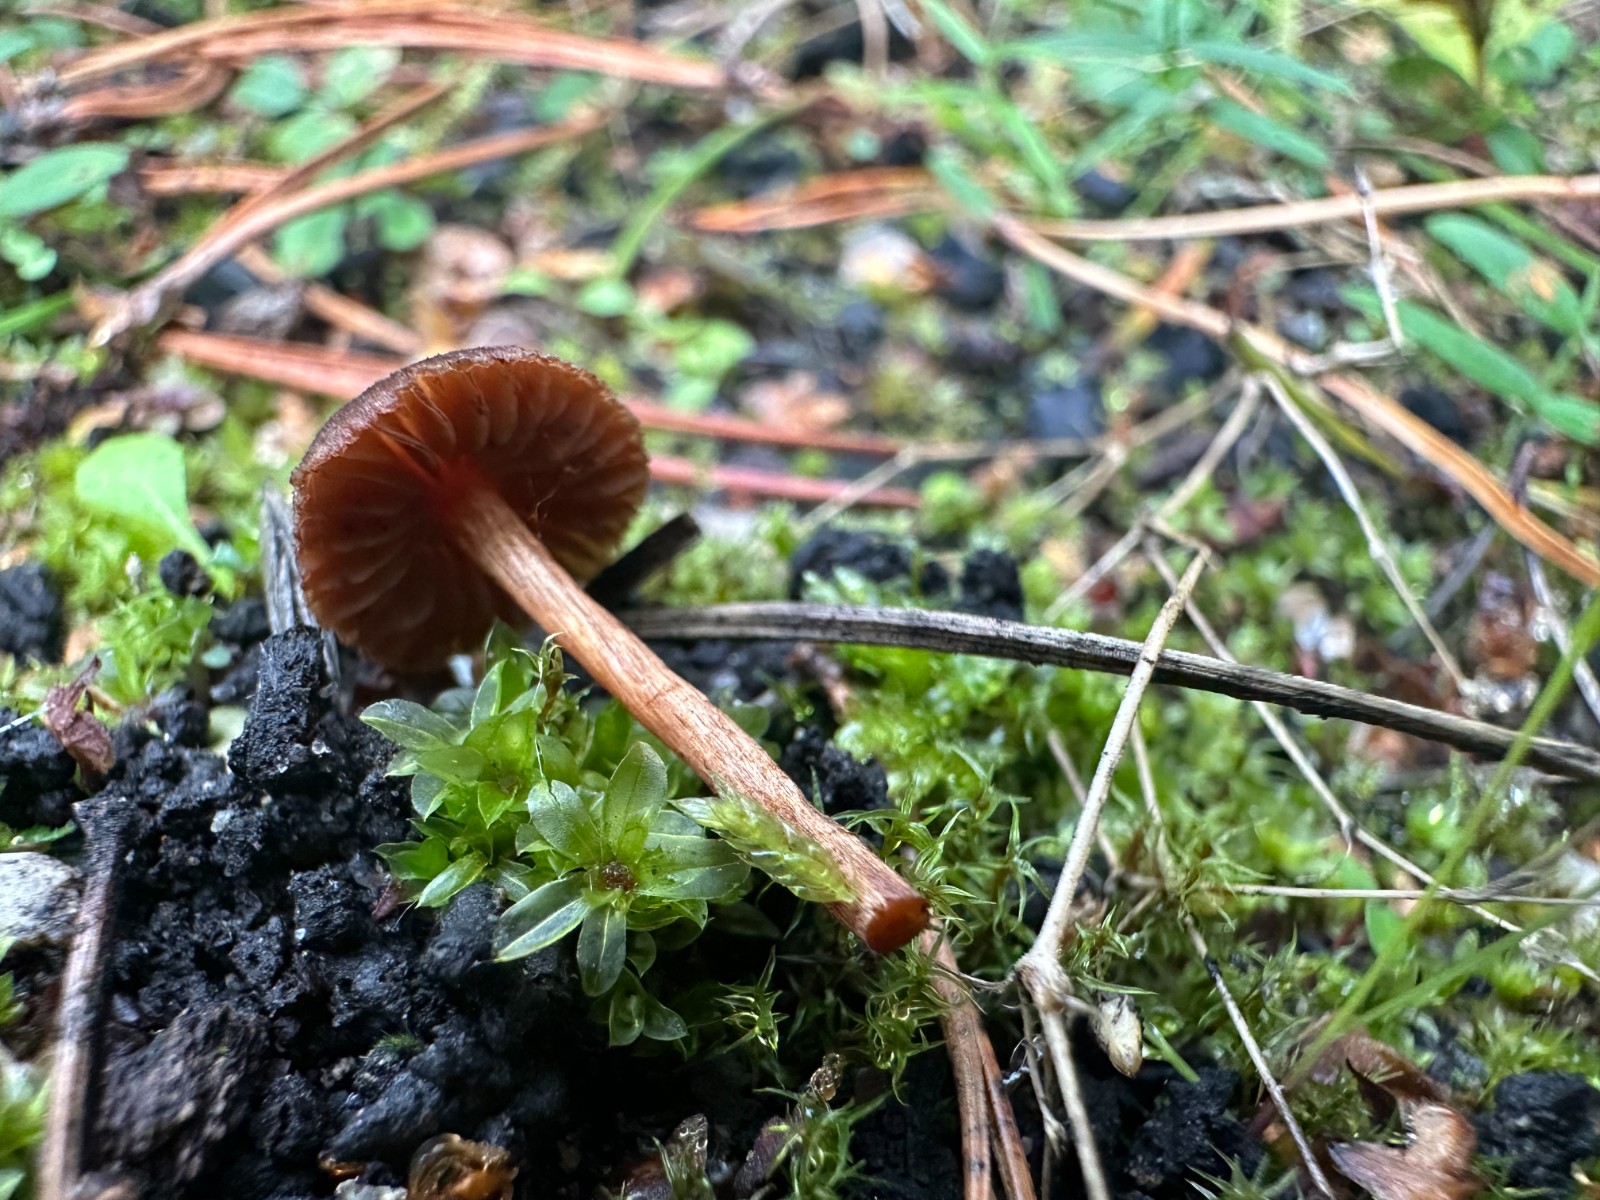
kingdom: Fungi
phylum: Basidiomycota
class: Agaricomycetes
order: Agaricales
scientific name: Agaricales
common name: champignonordenen
